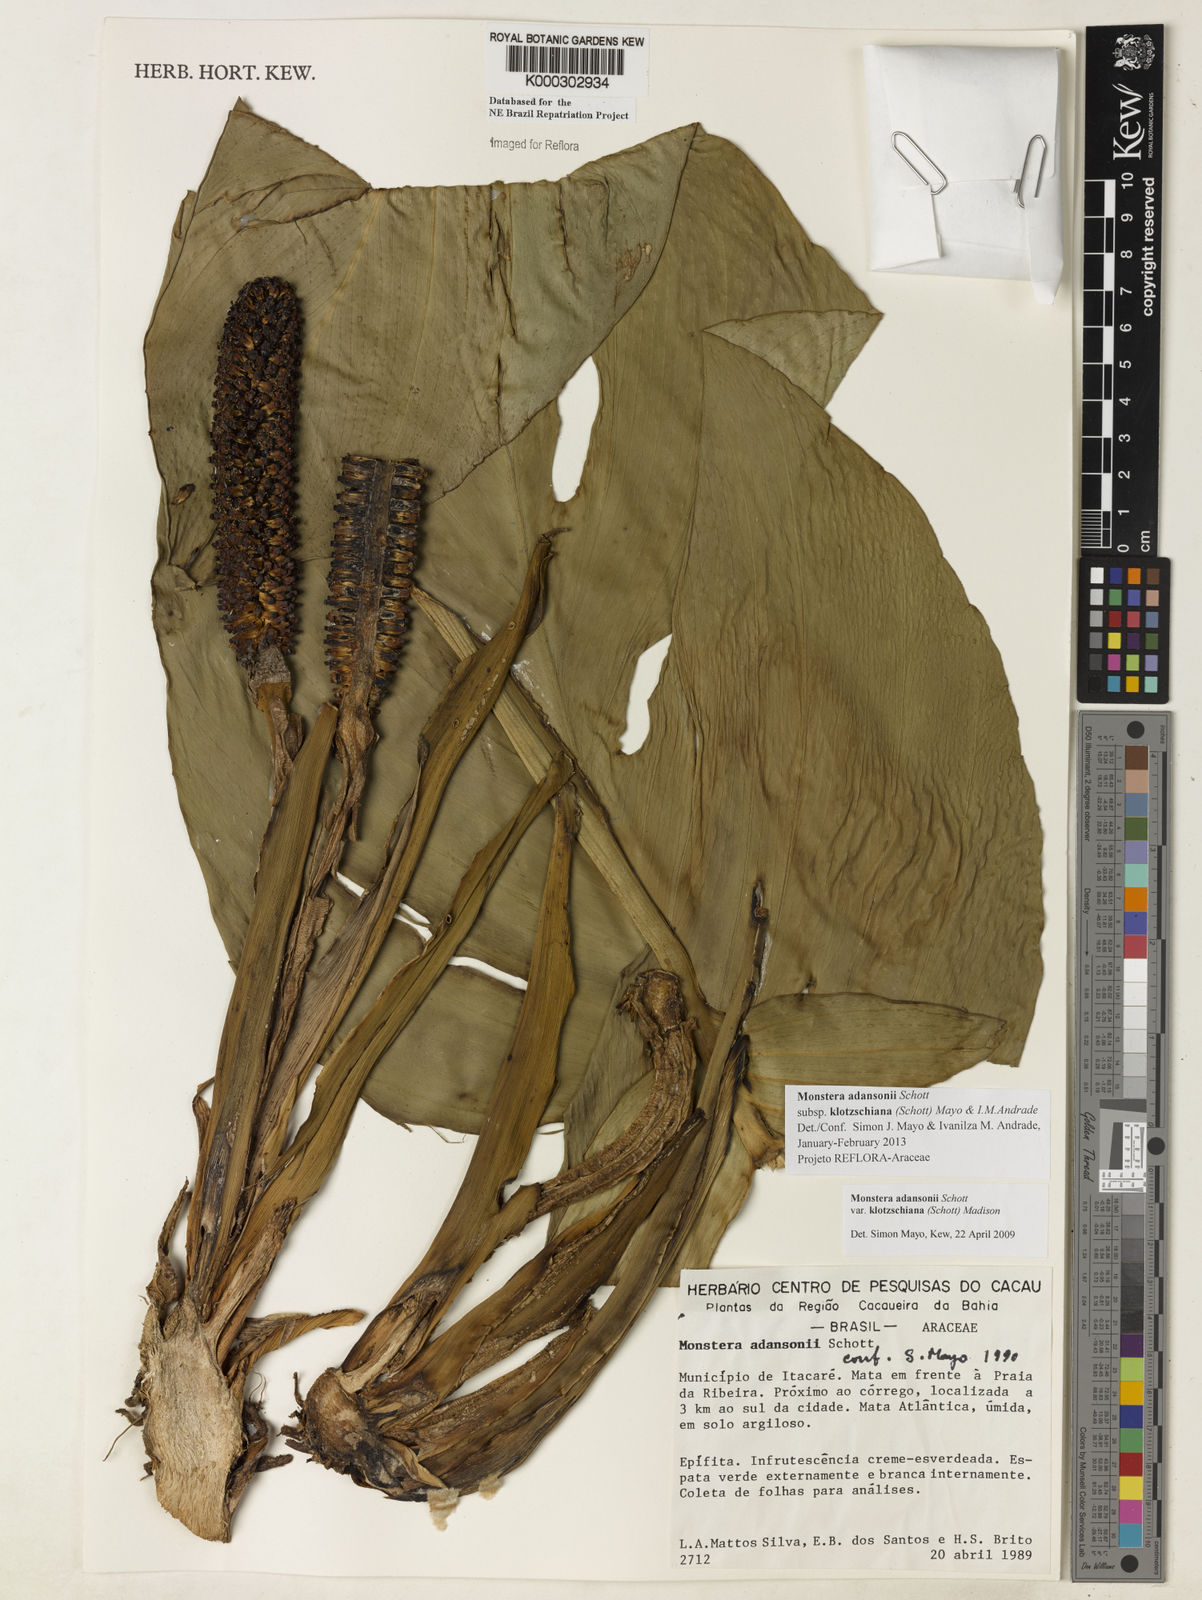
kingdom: Plantae
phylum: Tracheophyta
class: Liliopsida
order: Alismatales
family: Araceae
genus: Monstera
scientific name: Monstera adansonii
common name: Tarovine
